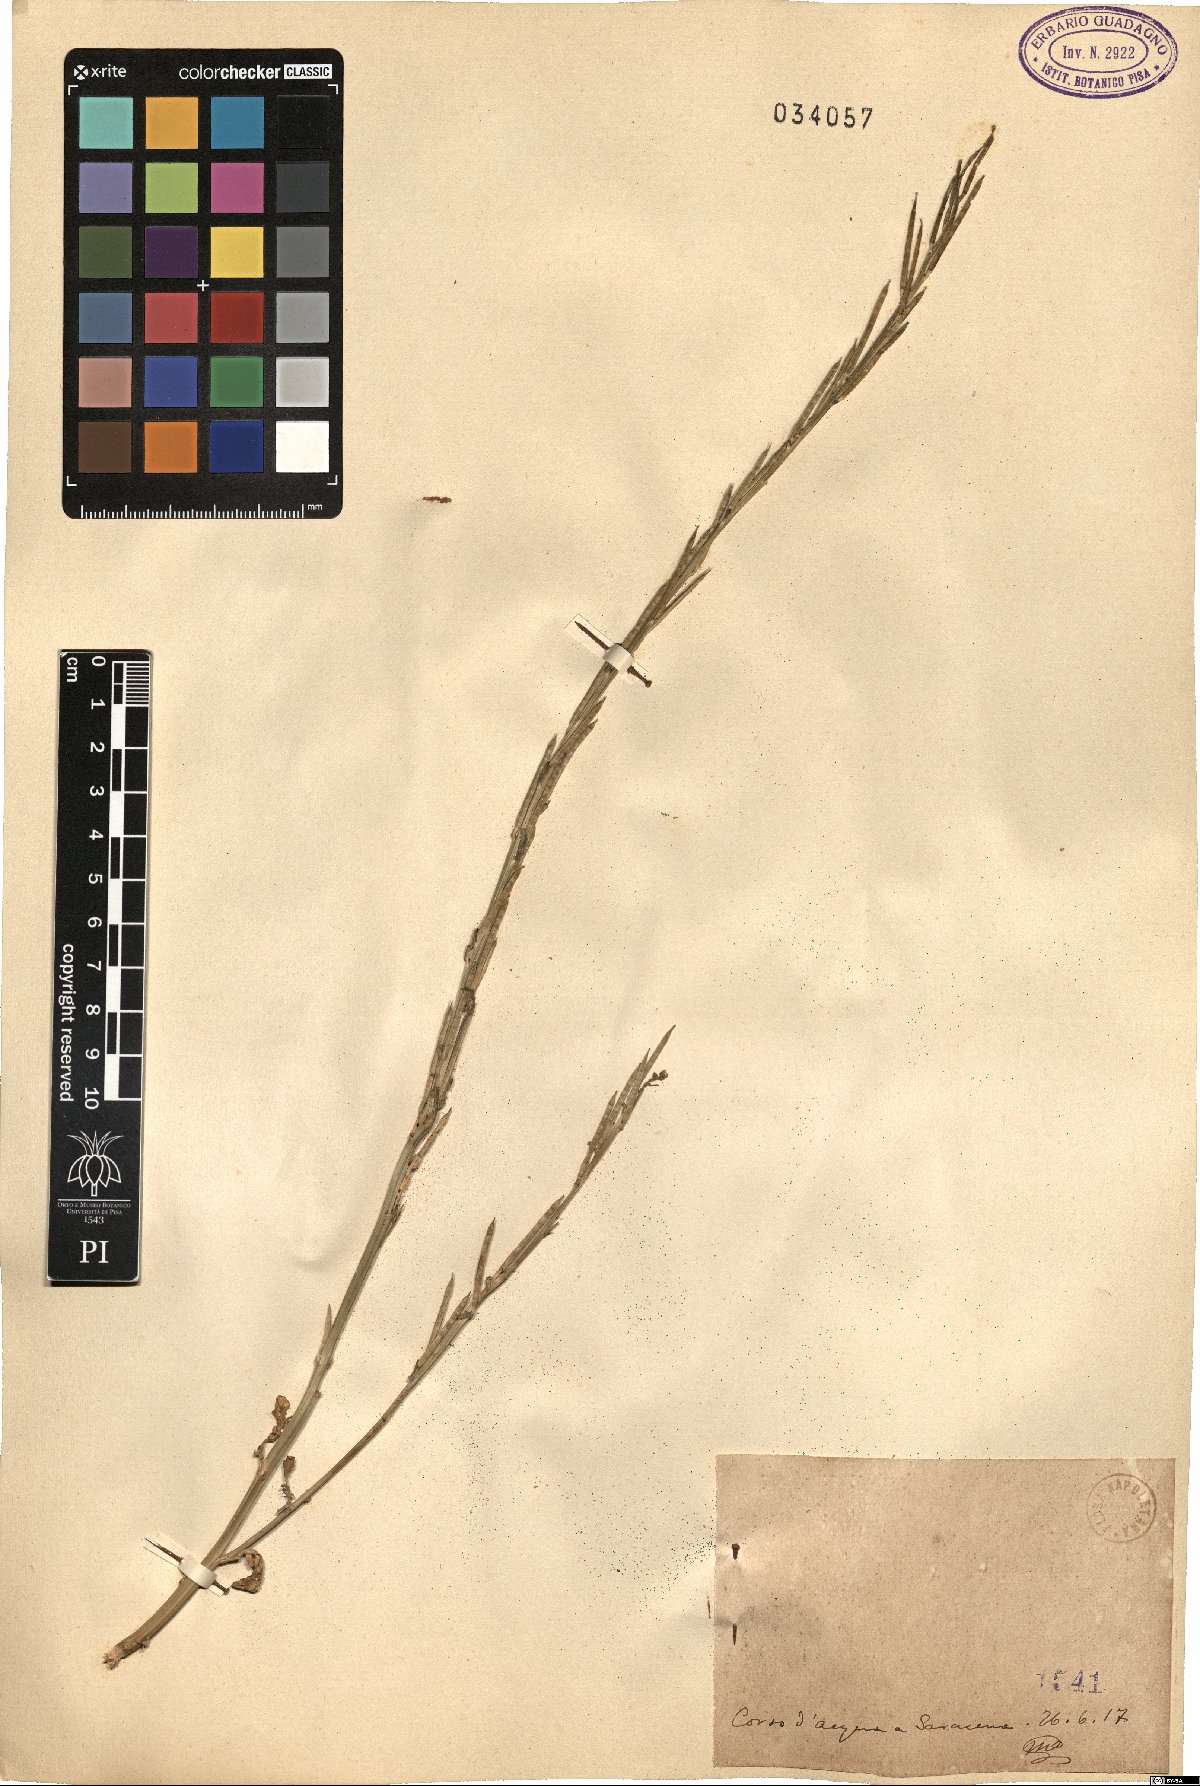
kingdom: Plantae
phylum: Tracheophyta
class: Magnoliopsida
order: Brassicales
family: Brassicaceae
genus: Barbarea
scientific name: Barbarea
